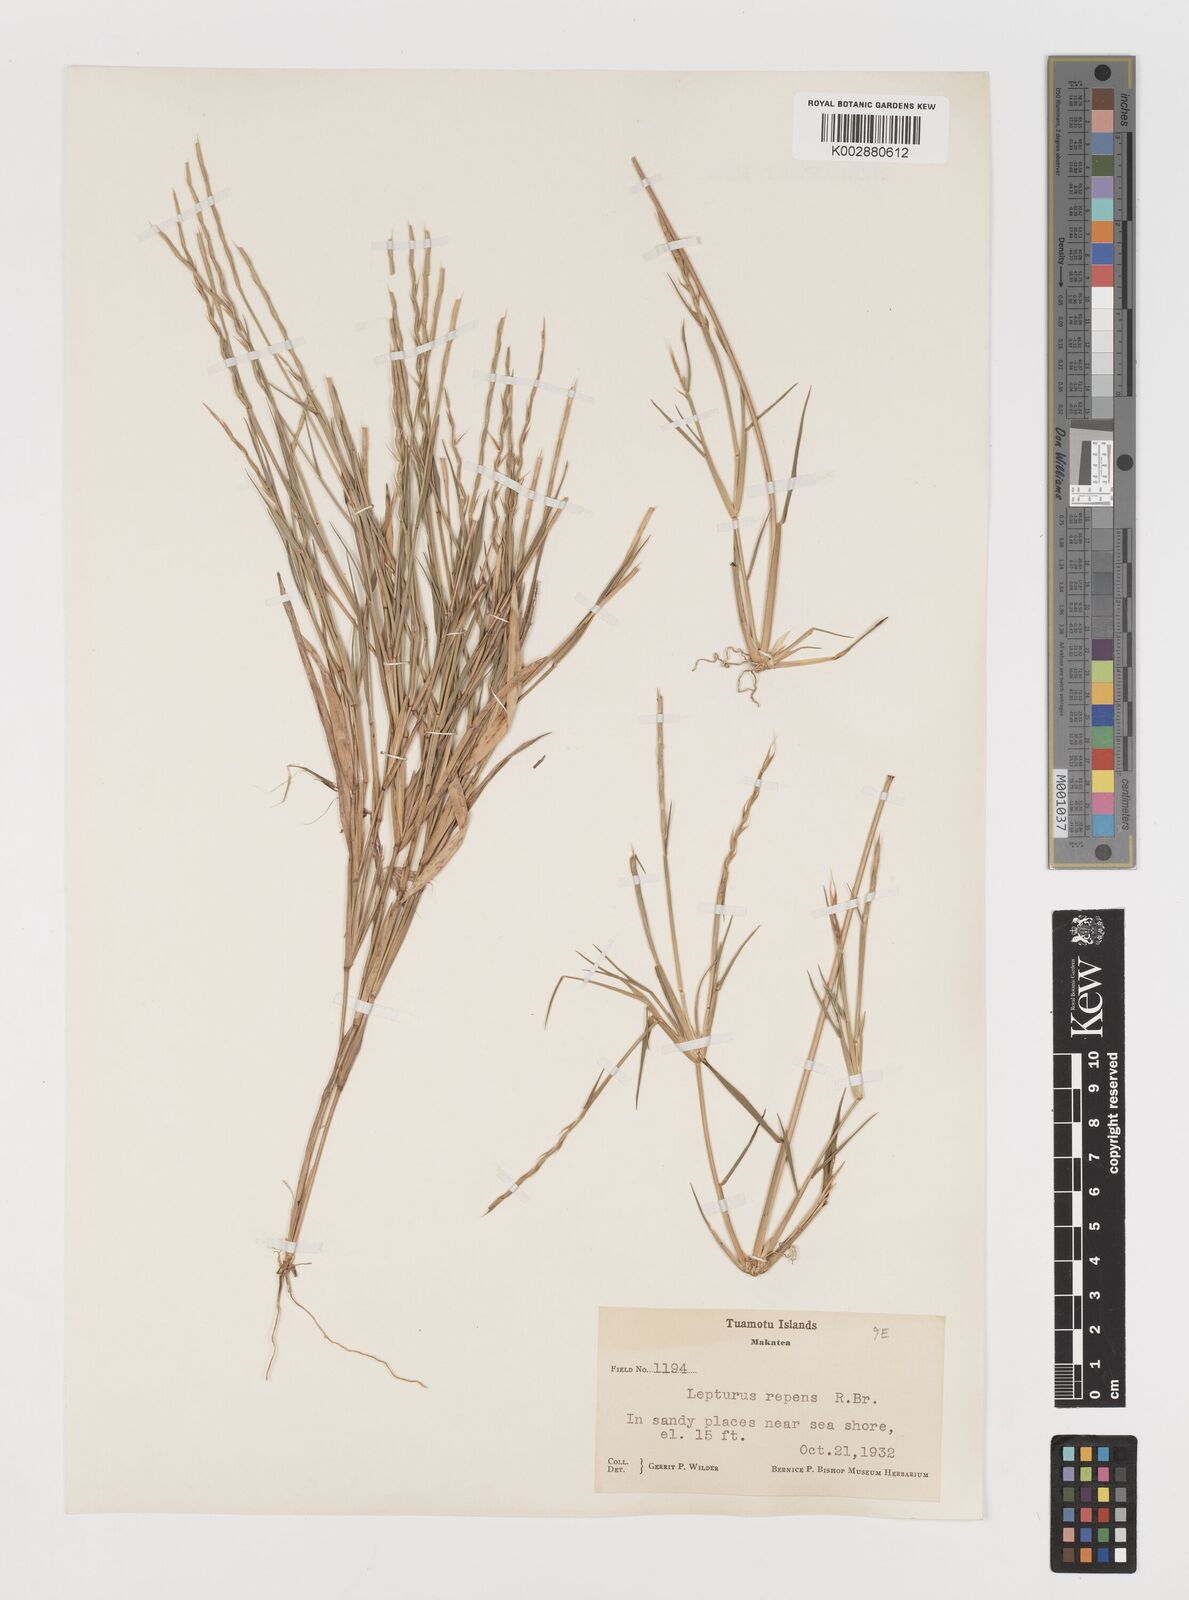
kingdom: Plantae
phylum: Tracheophyta
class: Liliopsida
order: Poales
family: Poaceae
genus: Lepturus
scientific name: Lepturus repens
